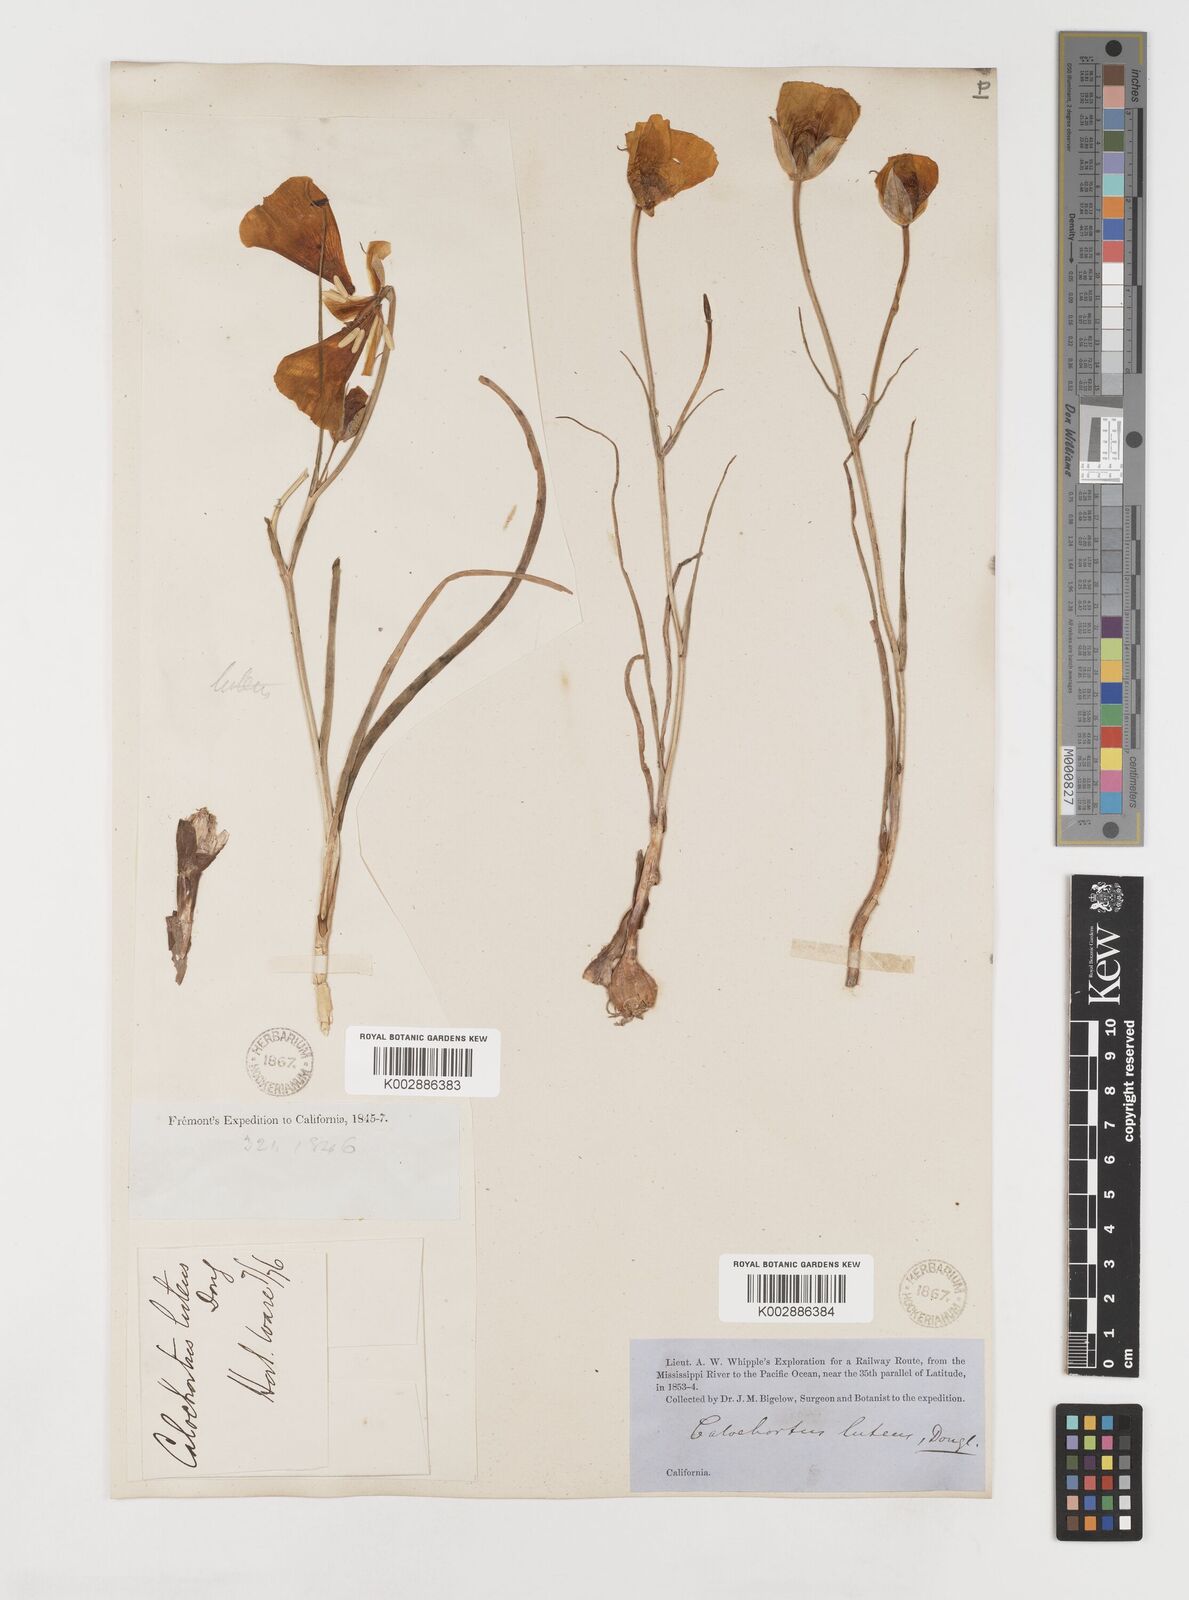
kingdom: Plantae
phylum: Tracheophyta
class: Liliopsida
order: Liliales
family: Liliaceae
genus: Calochortus
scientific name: Calochortus nuttallii
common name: Sego-lily
